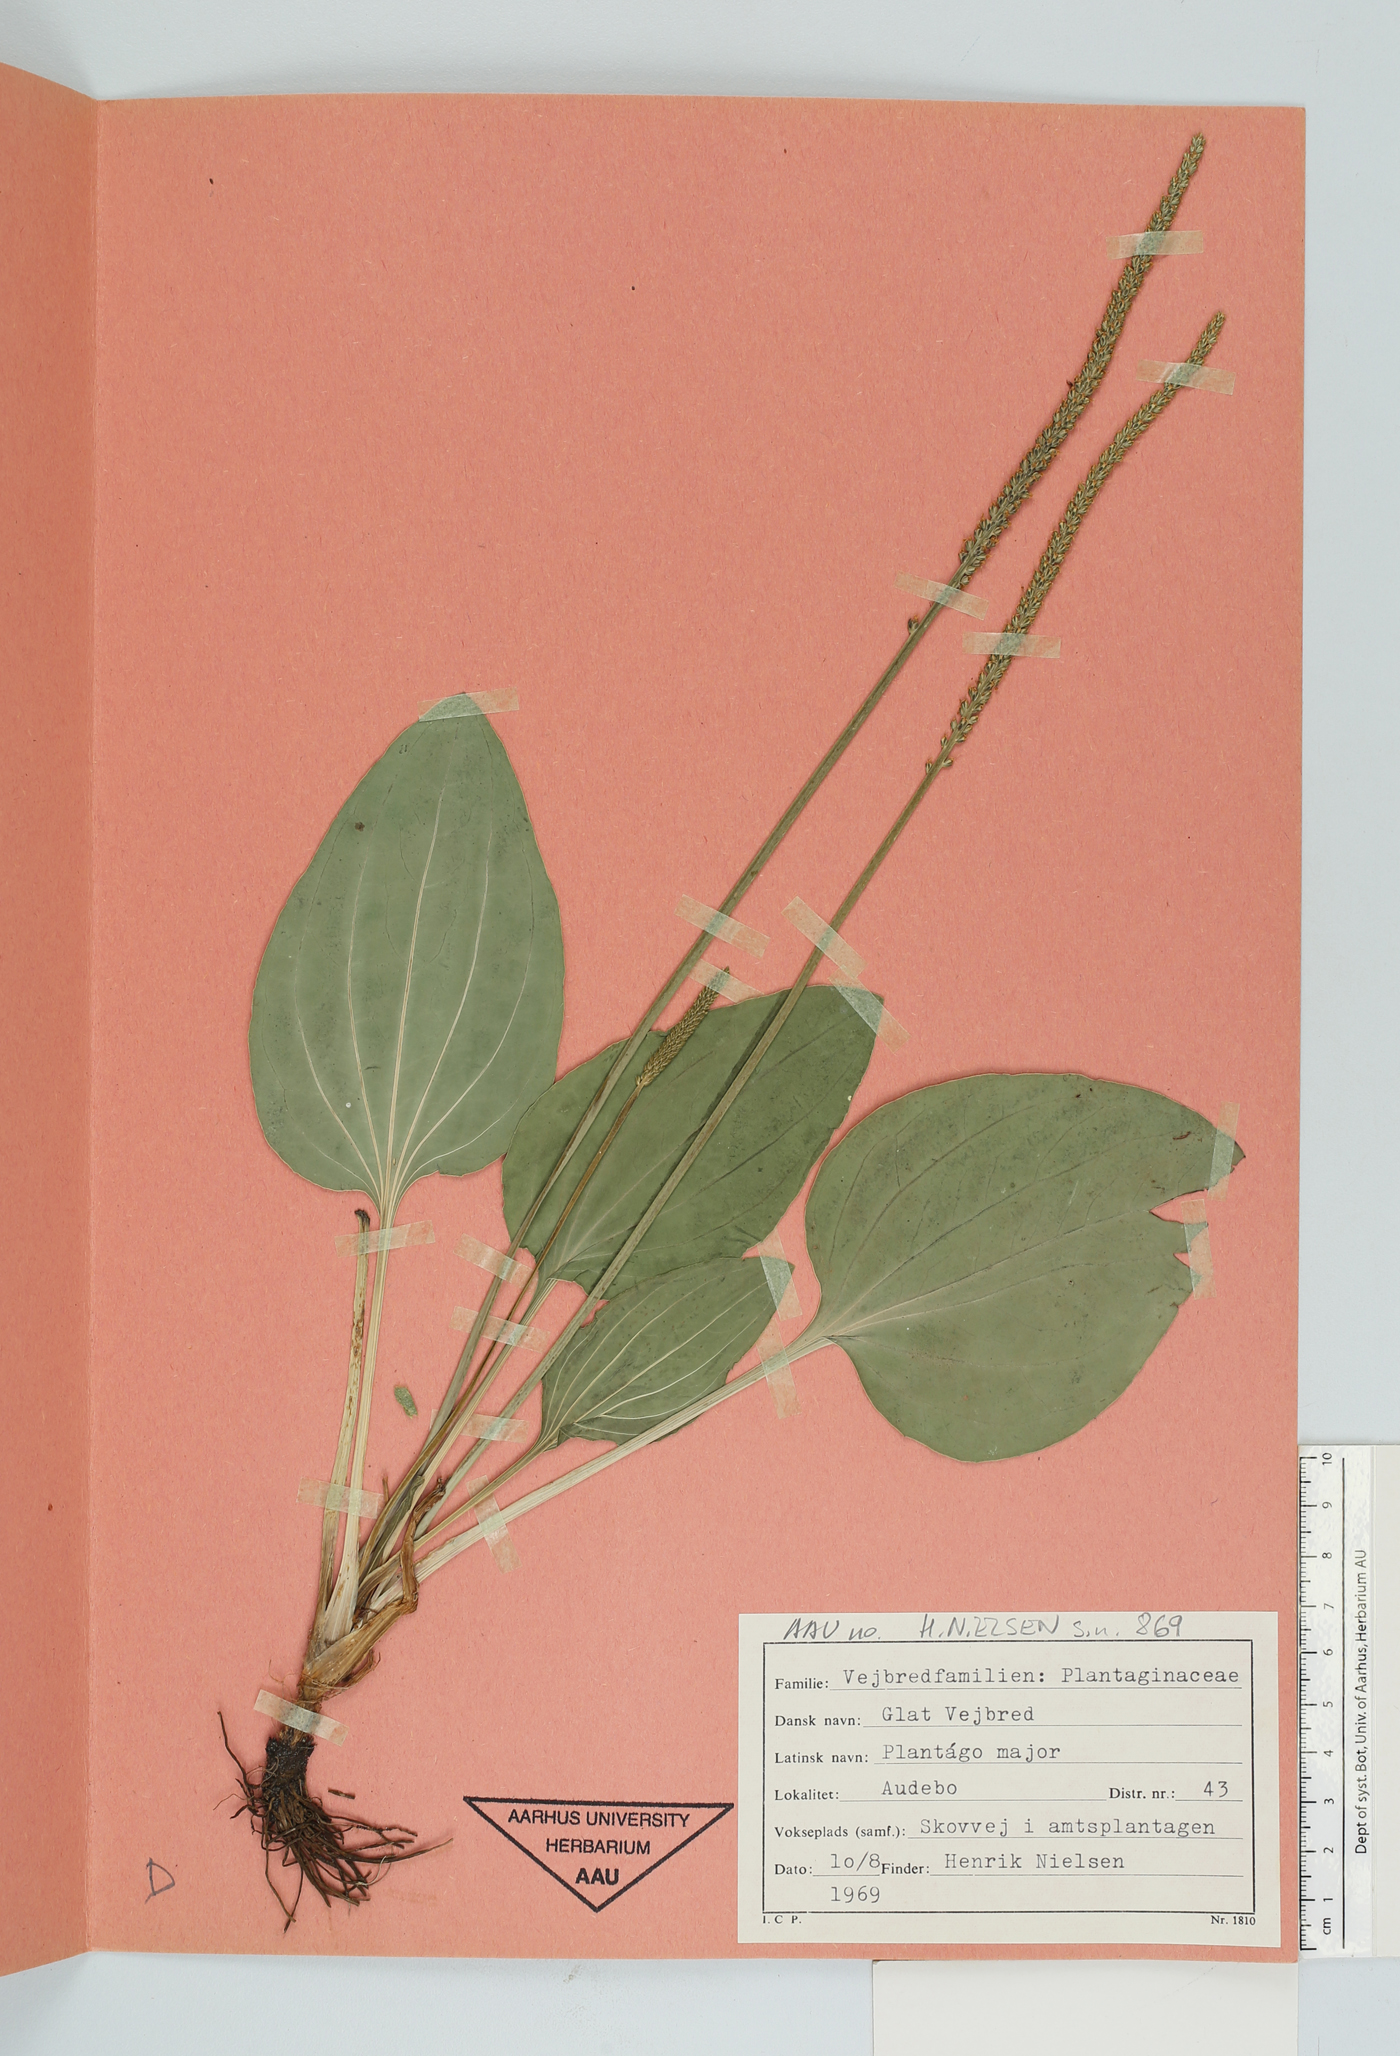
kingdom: Plantae
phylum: Tracheophyta
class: Magnoliopsida
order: Lamiales
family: Plantaginaceae
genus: Plantago
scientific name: Plantago major
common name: Common plantain
